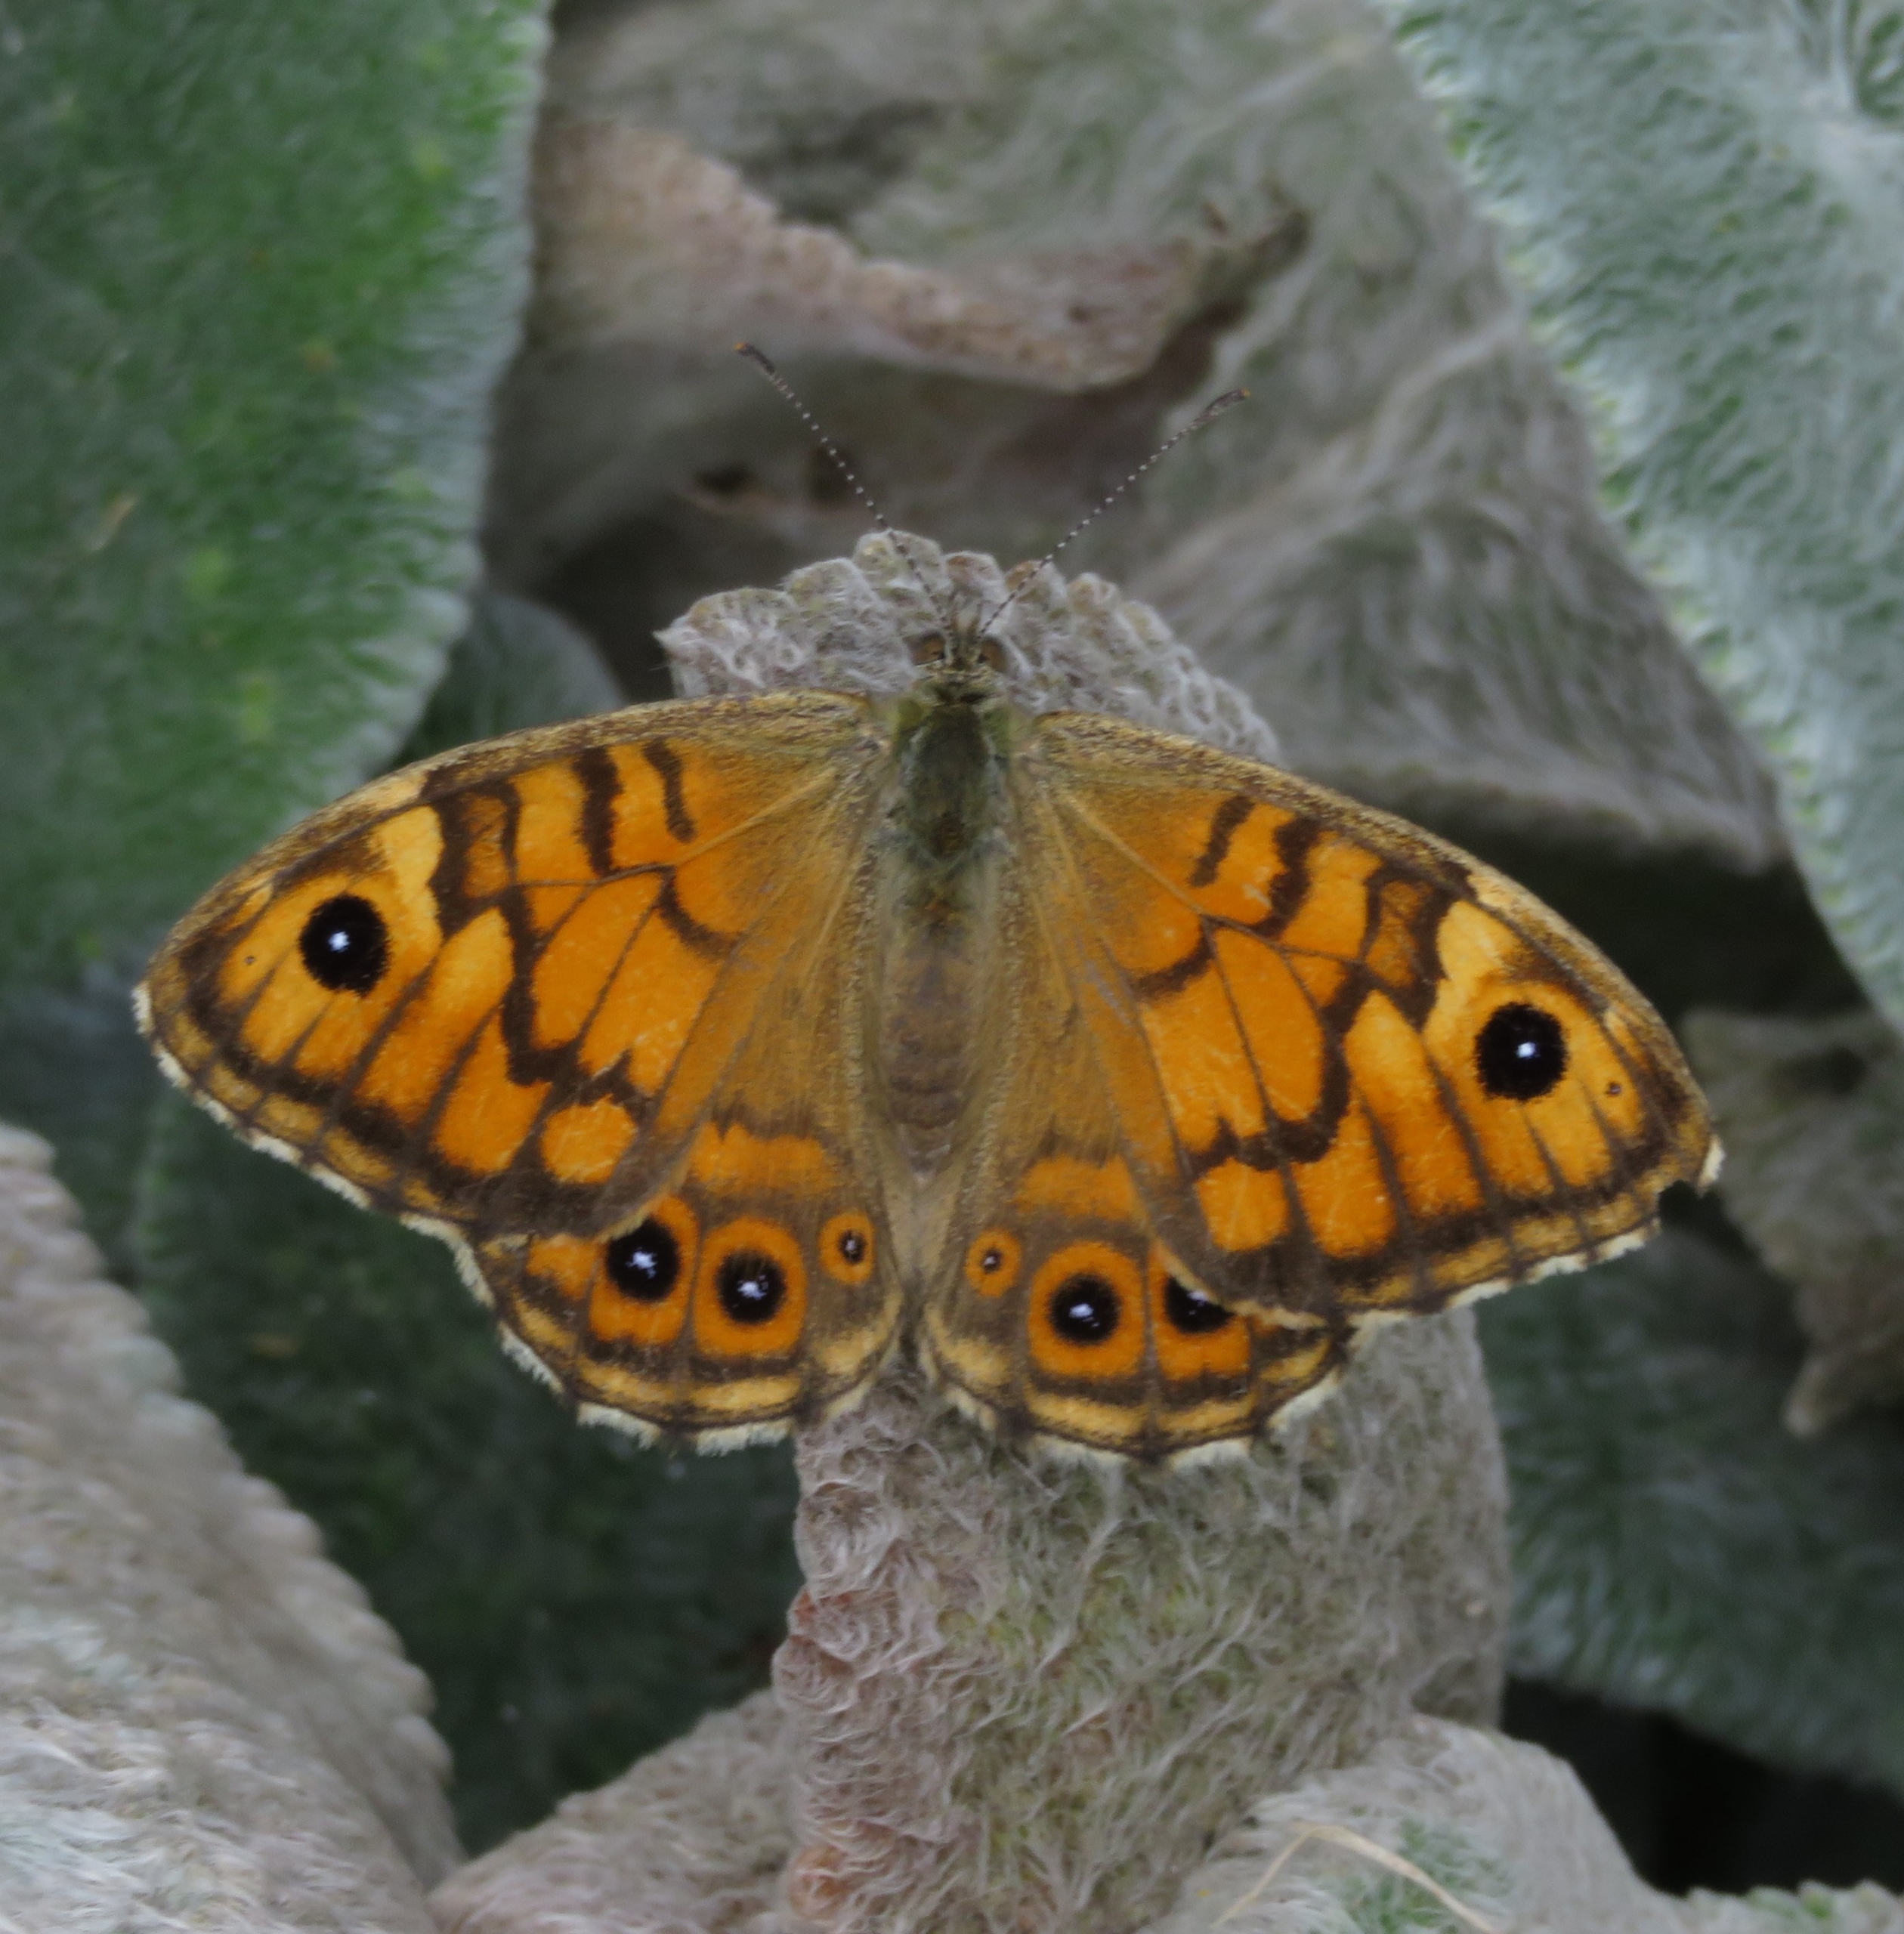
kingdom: Animalia
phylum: Arthropoda
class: Insecta
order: Lepidoptera
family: Nymphalidae
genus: Pararge
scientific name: Pararge Lasiommata megera
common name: Vejrandøje
